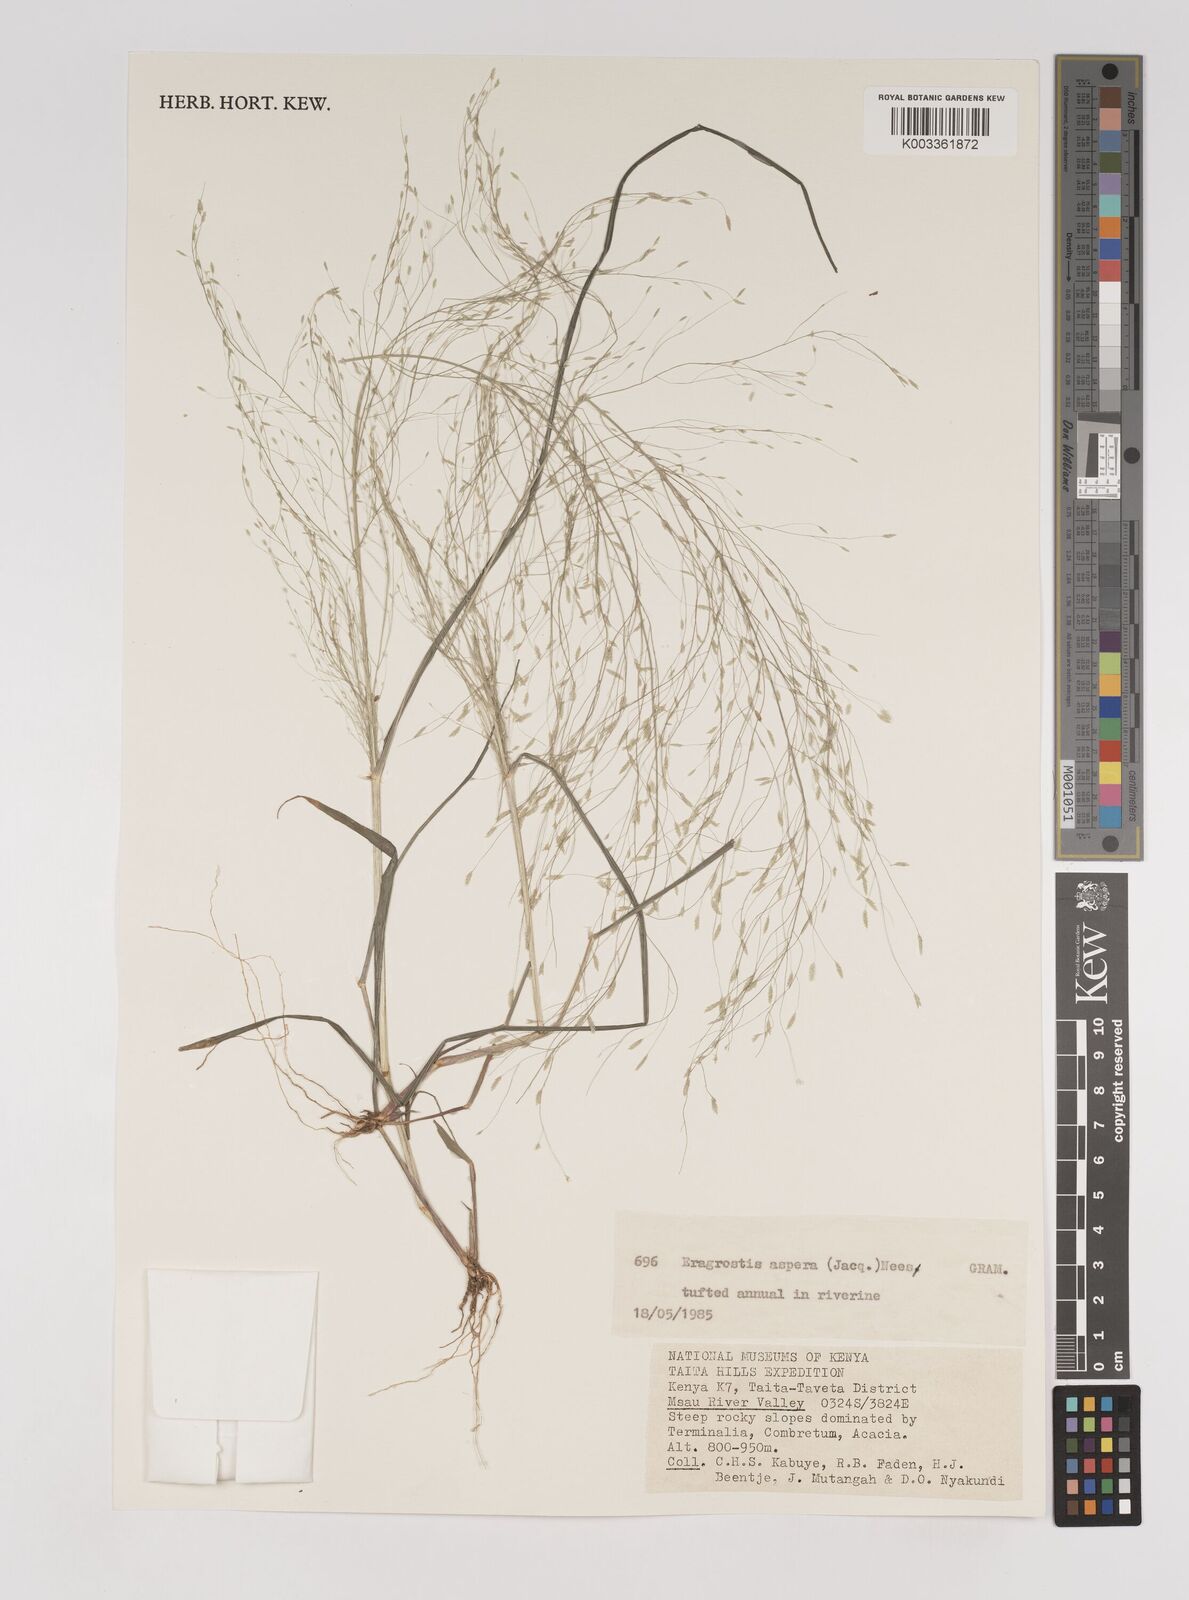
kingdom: Plantae
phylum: Tracheophyta
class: Liliopsida
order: Poales
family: Poaceae
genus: Eragrostis
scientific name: Eragrostis aspera
